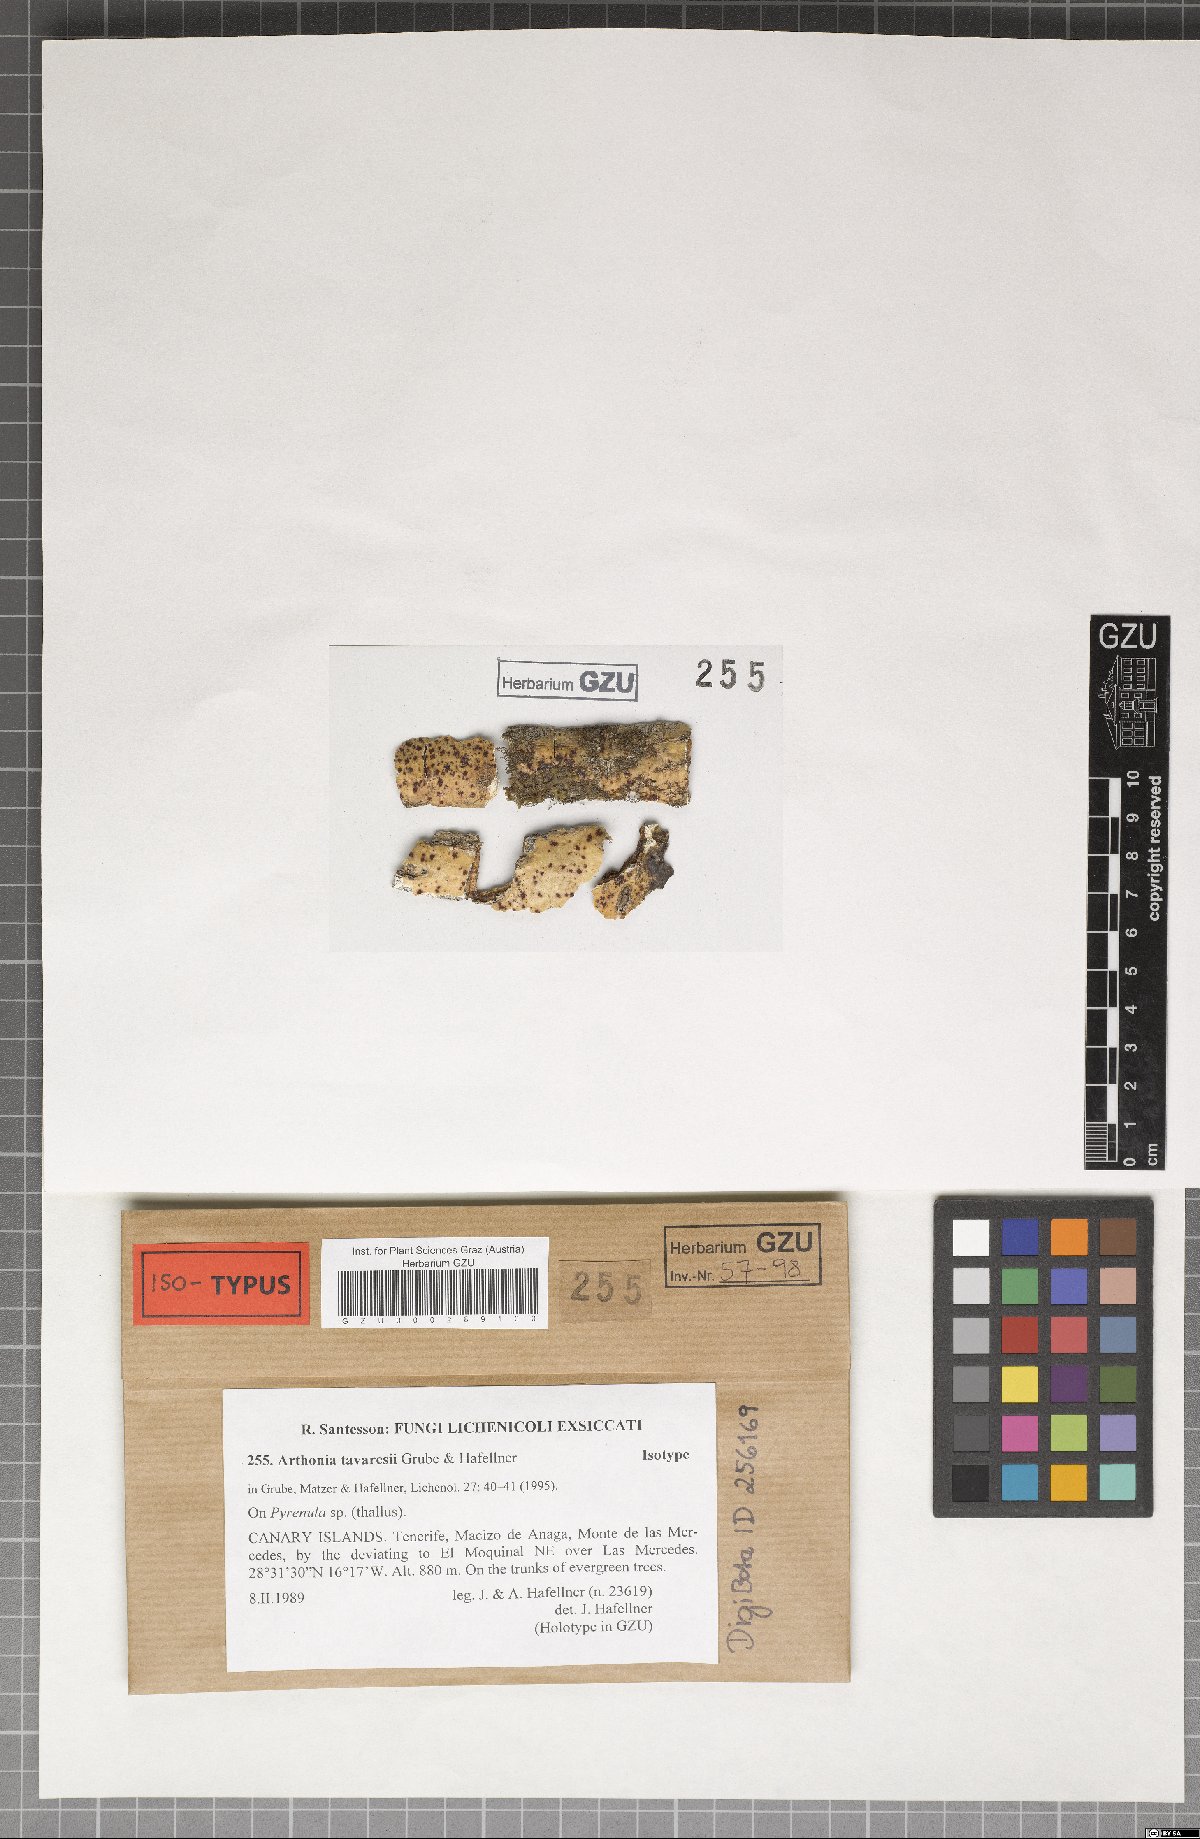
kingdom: Plantae
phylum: Marchantiophyta
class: Jungermanniopsida
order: Jungermanniales
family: Cephaloziaceae
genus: Odontoschisma
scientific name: Odontoschisma
